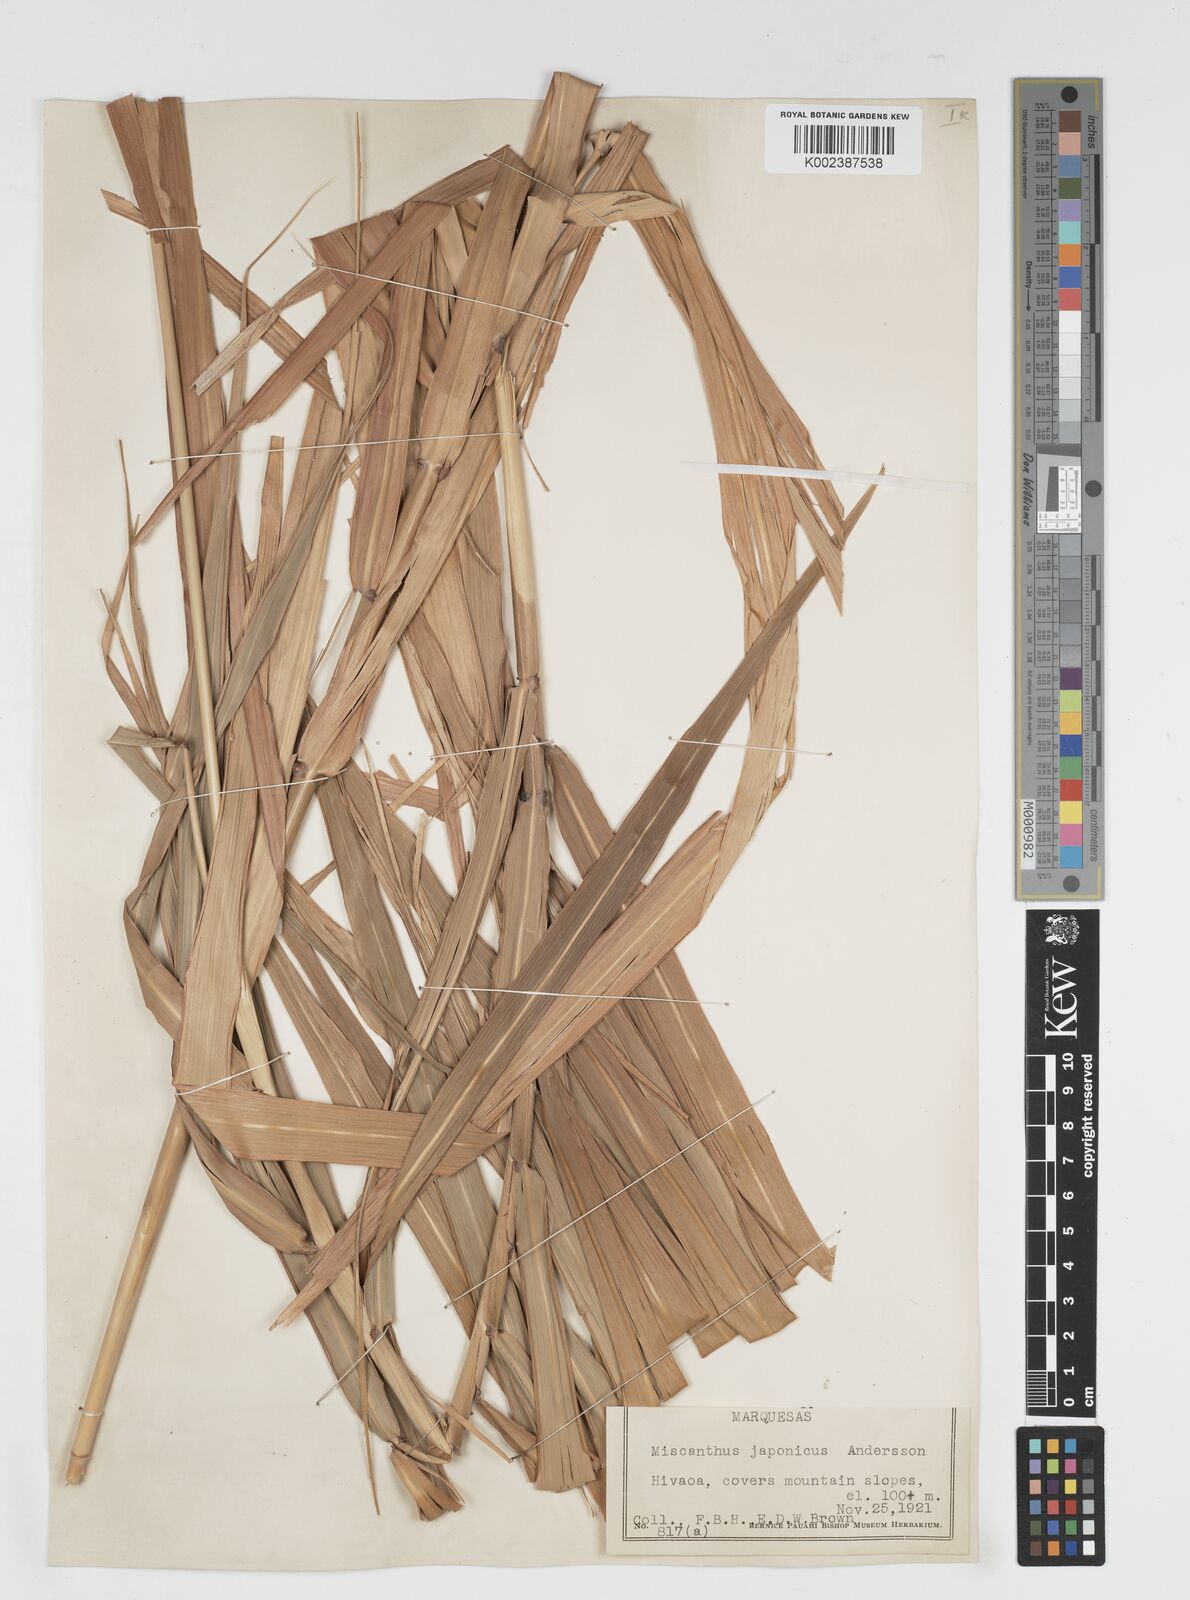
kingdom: Plantae
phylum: Tracheophyta
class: Liliopsida
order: Poales
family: Poaceae
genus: Miscanthus
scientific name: Miscanthus
